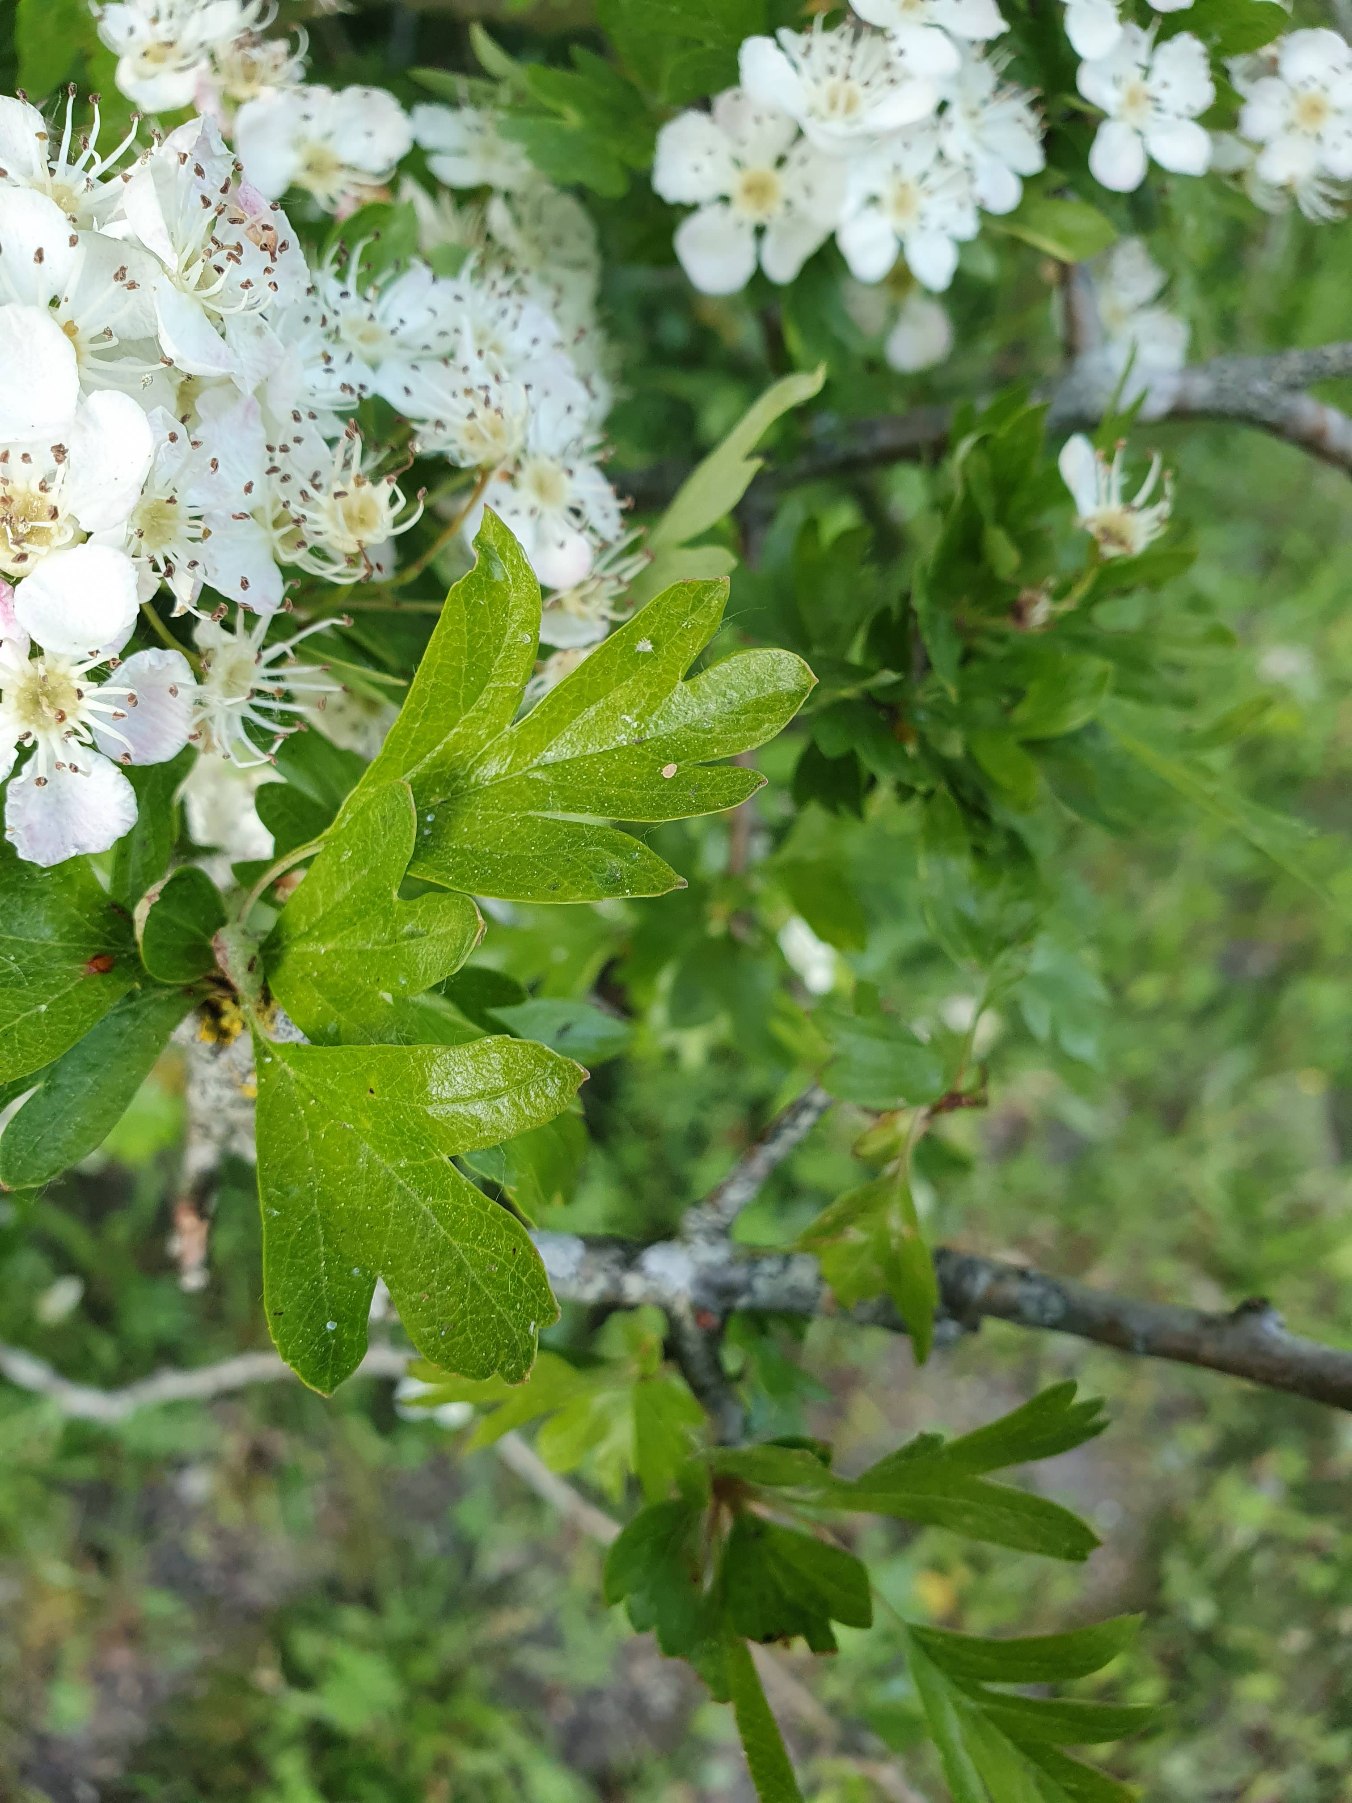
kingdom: Plantae
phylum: Tracheophyta
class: Magnoliopsida
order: Rosales
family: Rosaceae
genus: Crataegus
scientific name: Crataegus monogyna
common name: Engriflet hvidtjørn
